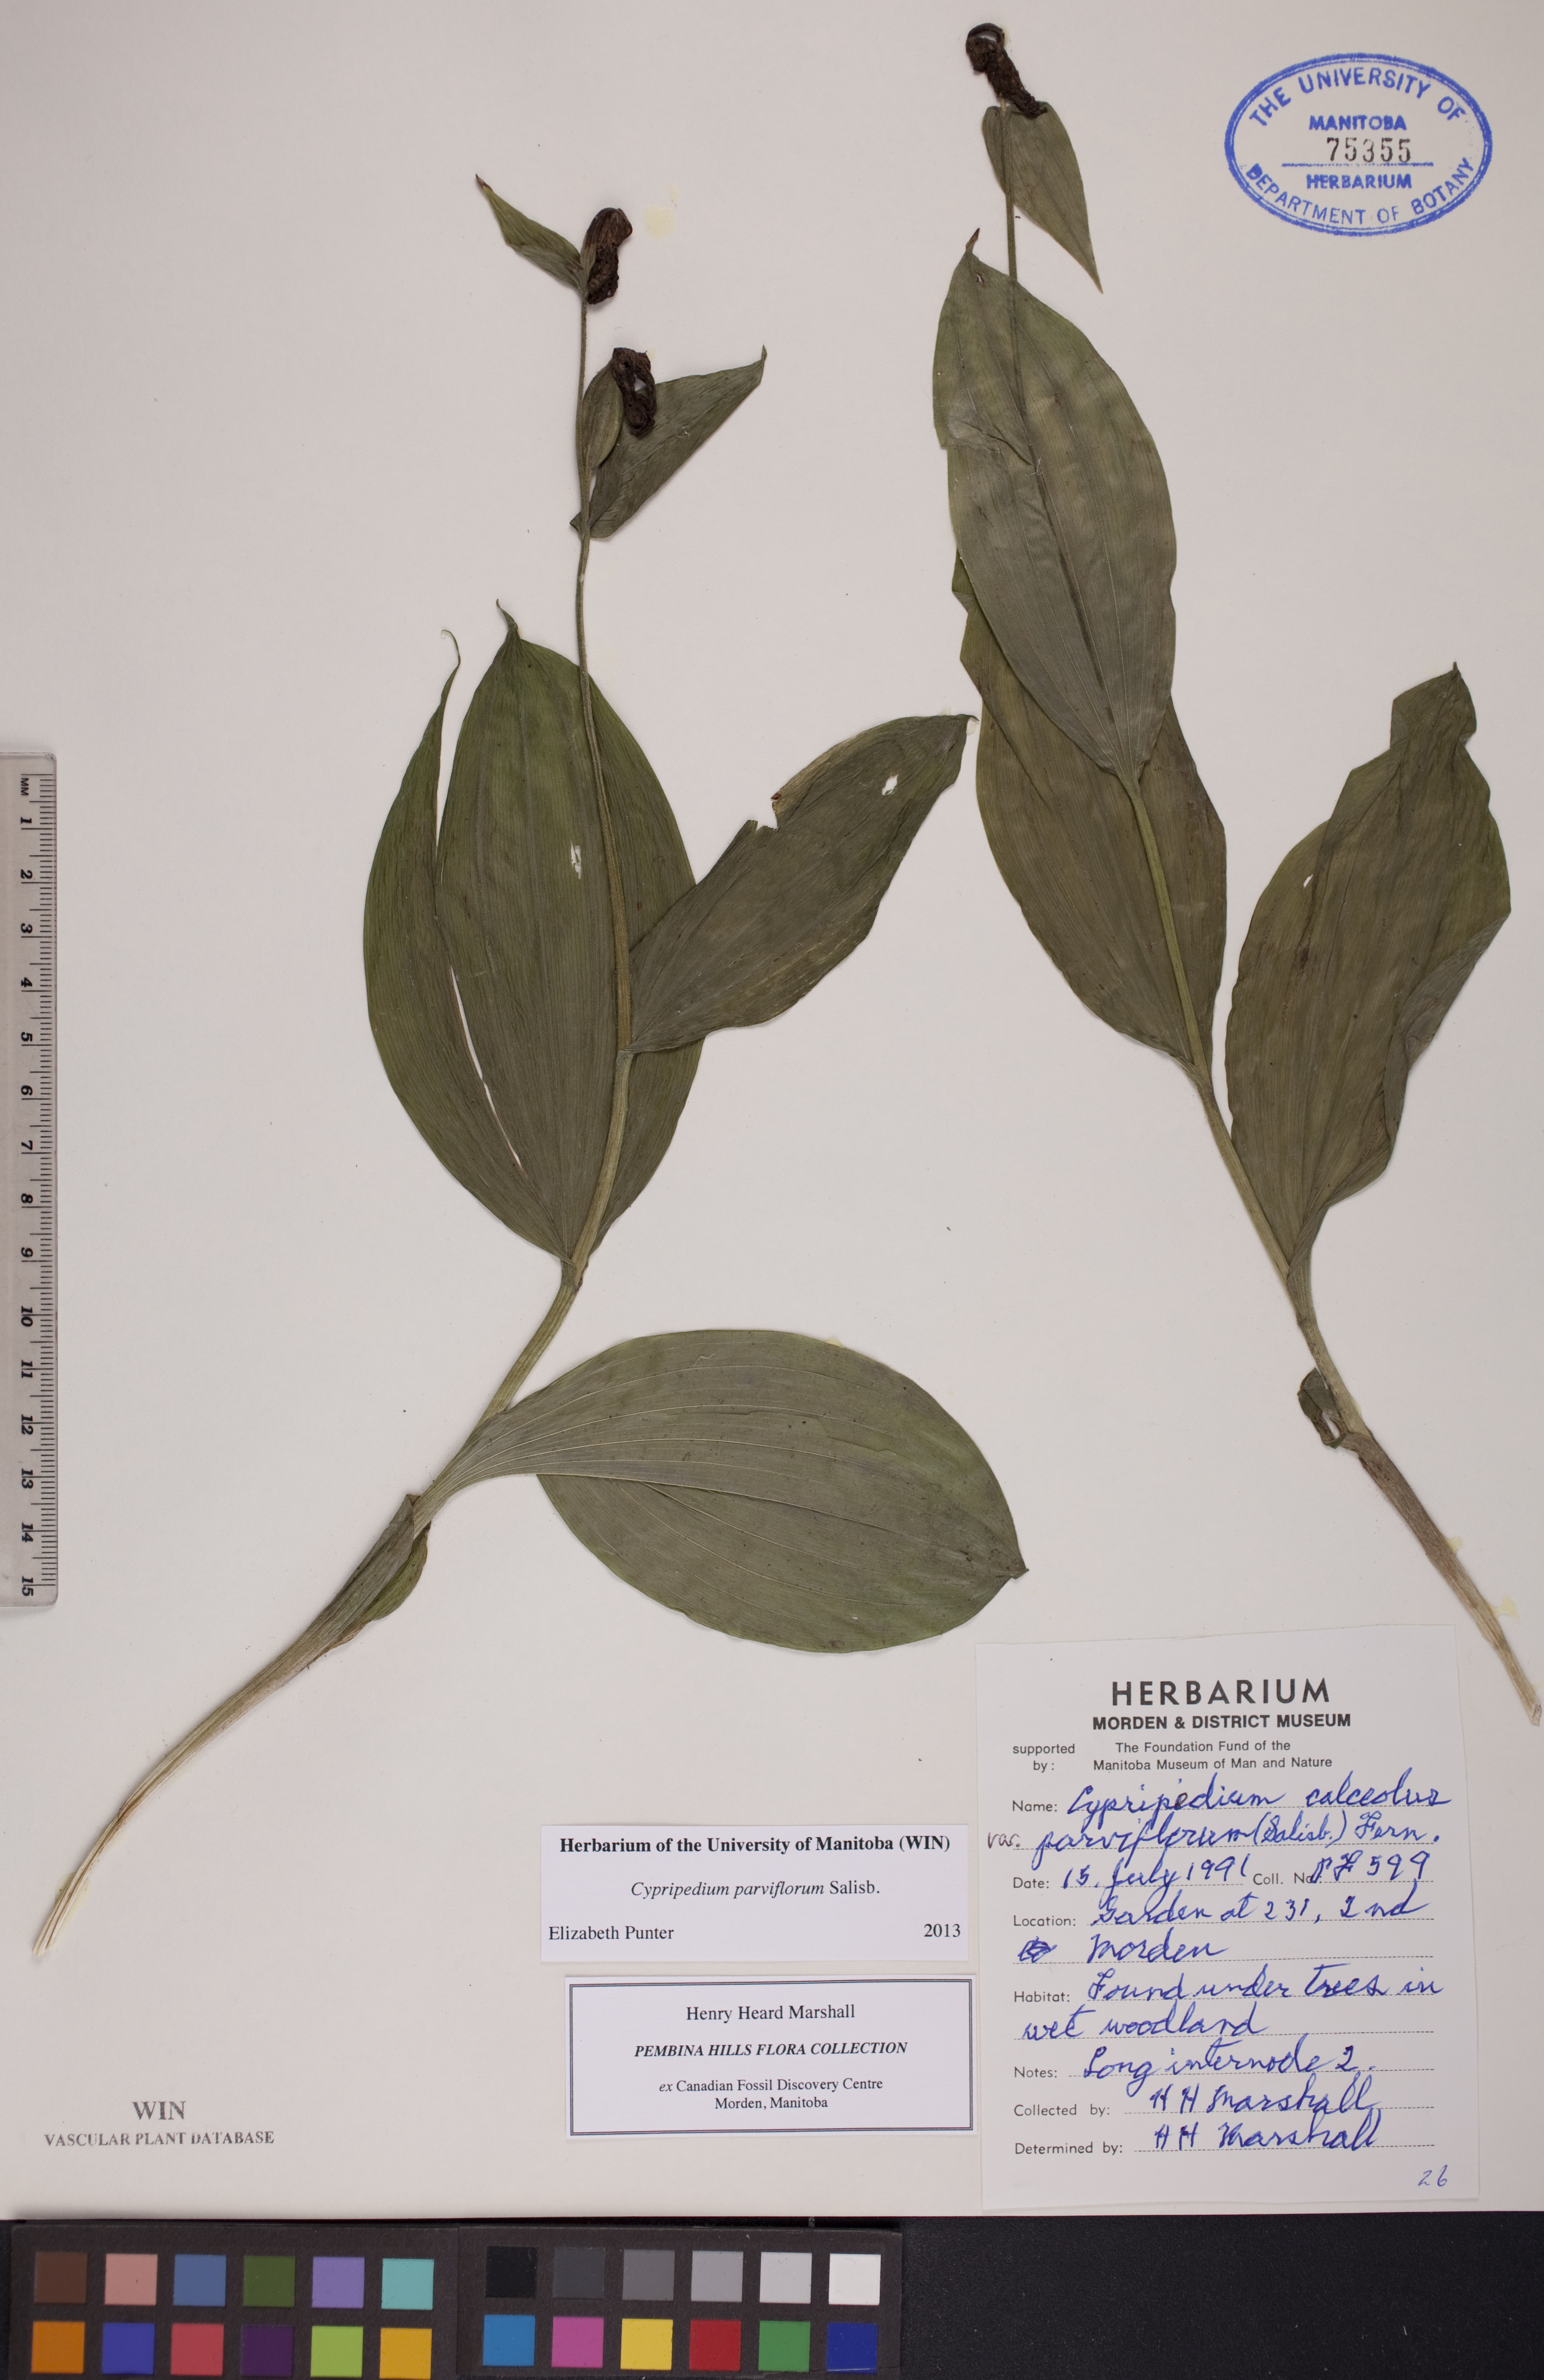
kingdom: Plantae
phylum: Tracheophyta
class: Liliopsida
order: Asparagales
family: Orchidaceae
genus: Cypripedium
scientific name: Cypripedium parviflorum
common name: American yellow lady's-slipper
